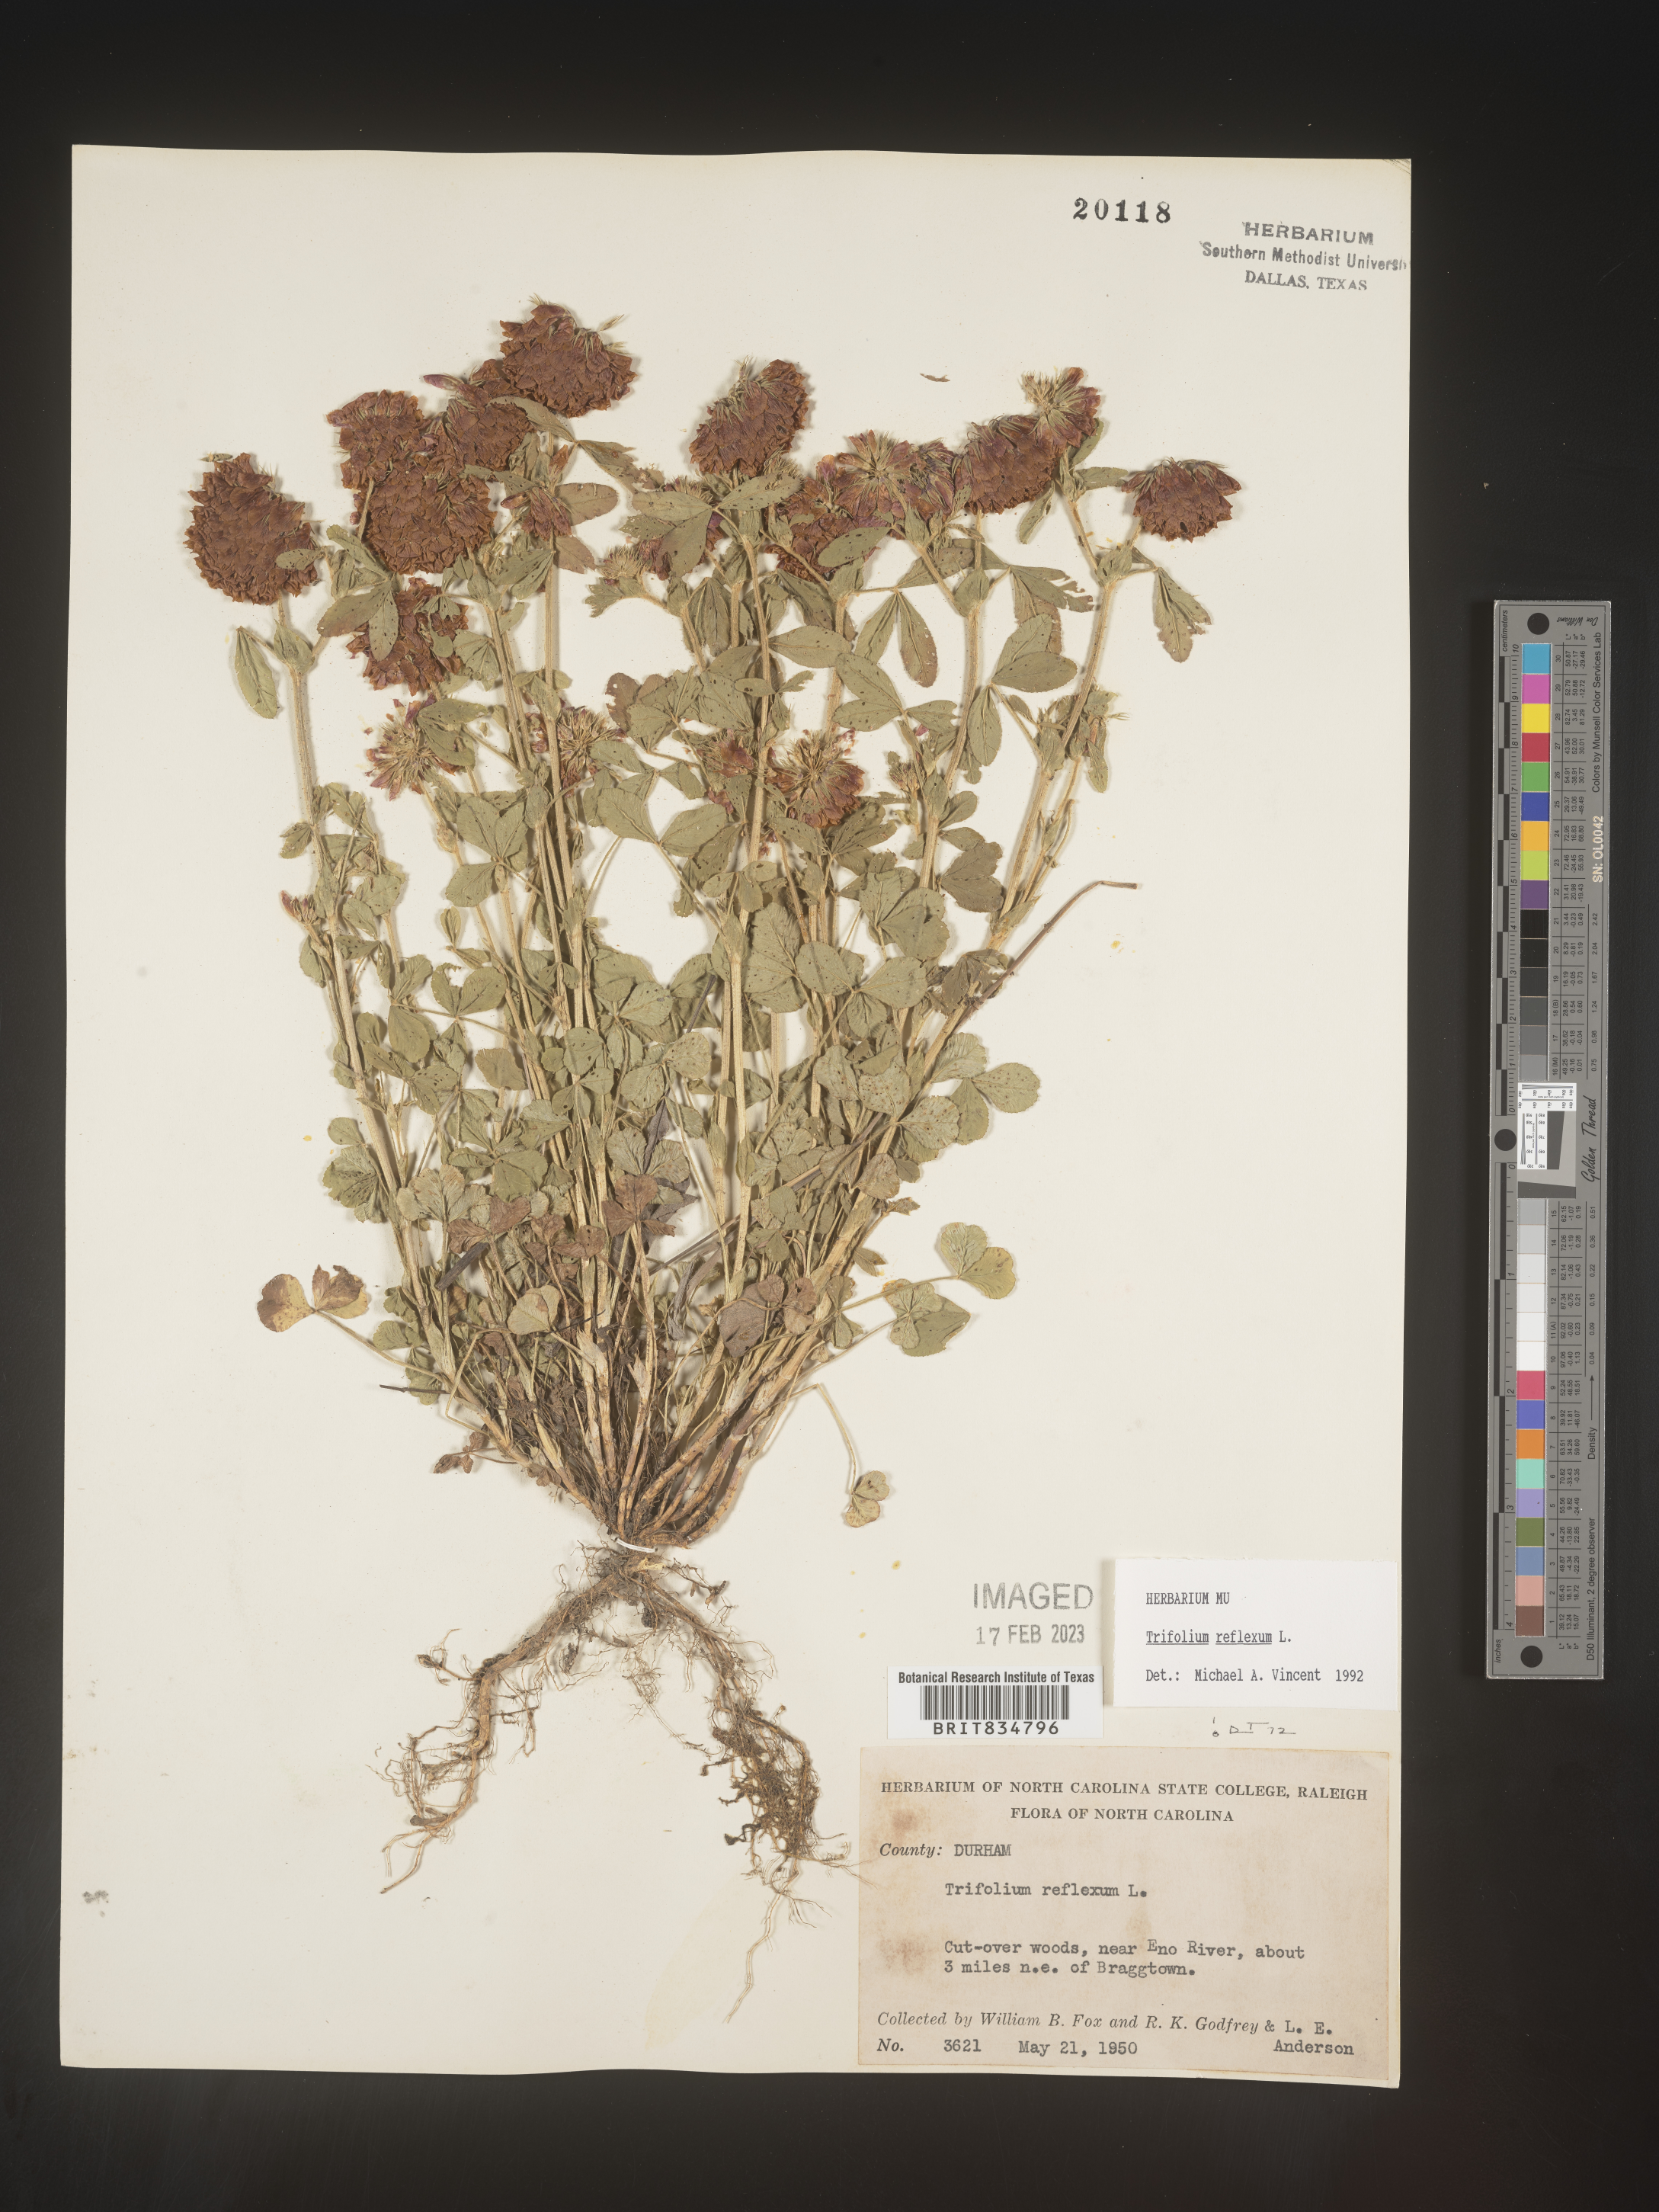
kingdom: Plantae
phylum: Tracheophyta
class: Magnoliopsida
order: Fabales
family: Fabaceae
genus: Trifolium
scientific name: Trifolium reflexum
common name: Buffalo clover
